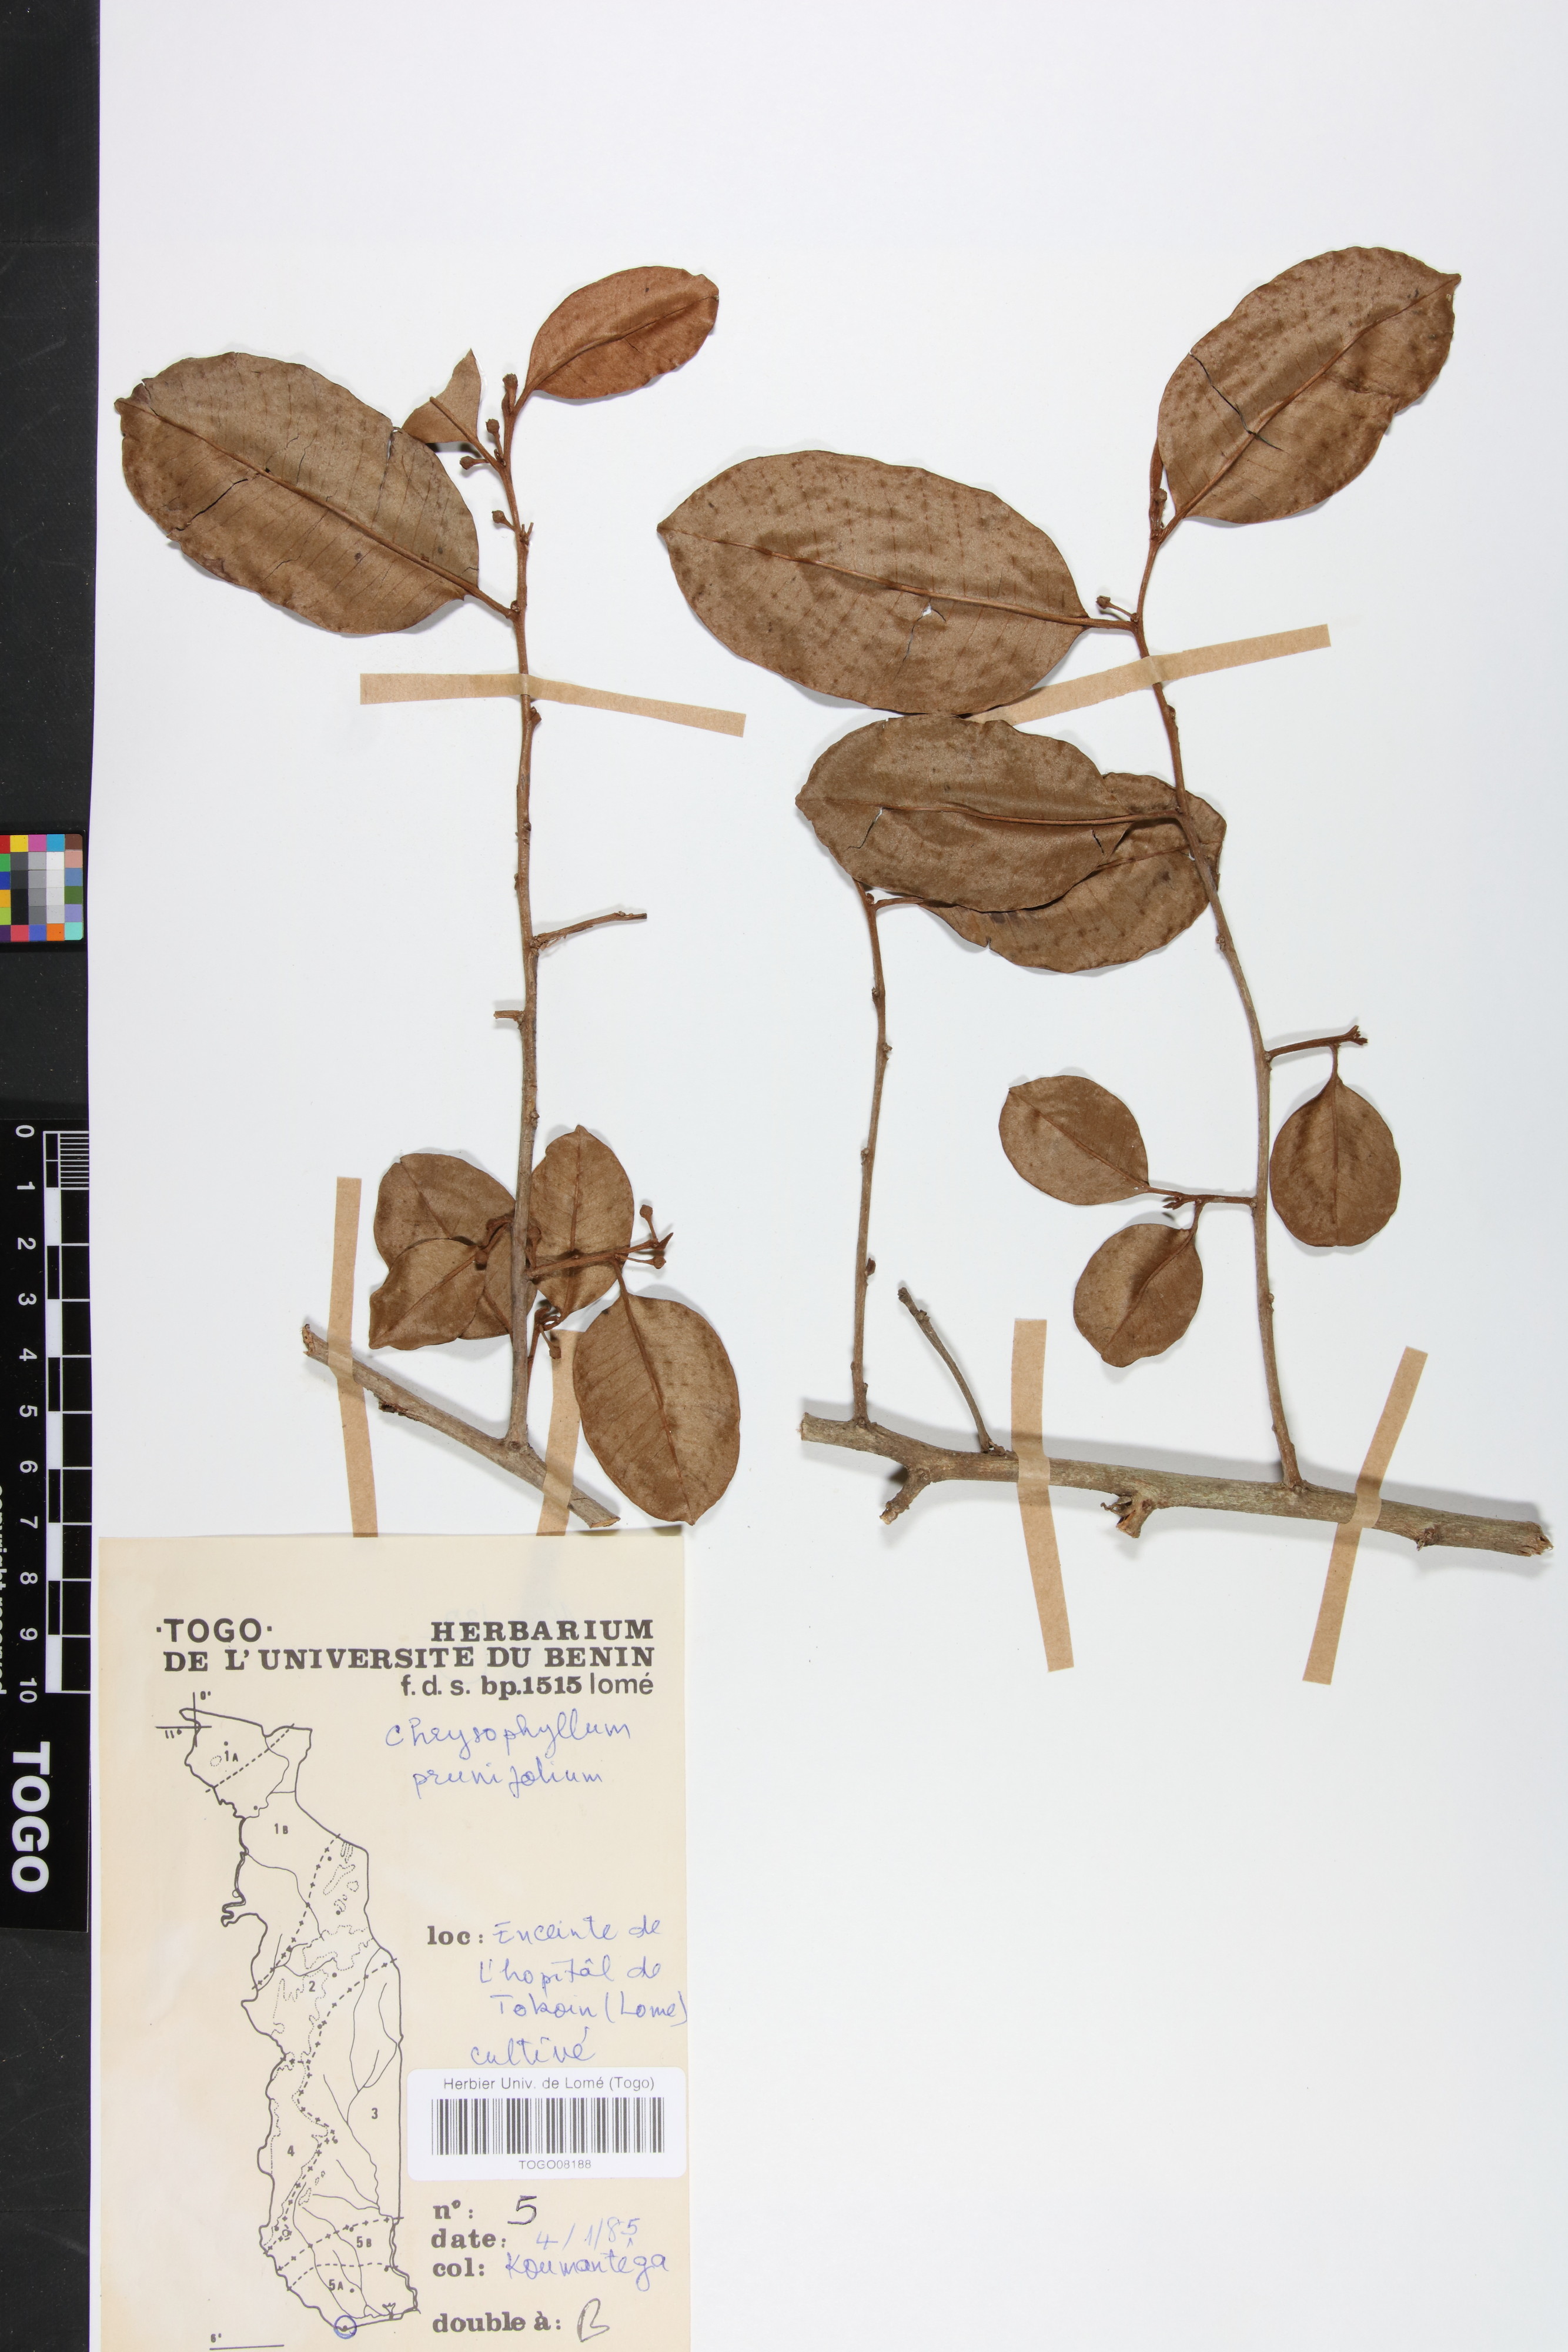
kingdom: Plantae
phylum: Tracheophyta
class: Magnoliopsida
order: Ericales
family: Sapotaceae
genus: Donella
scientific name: Donella pruniformis
